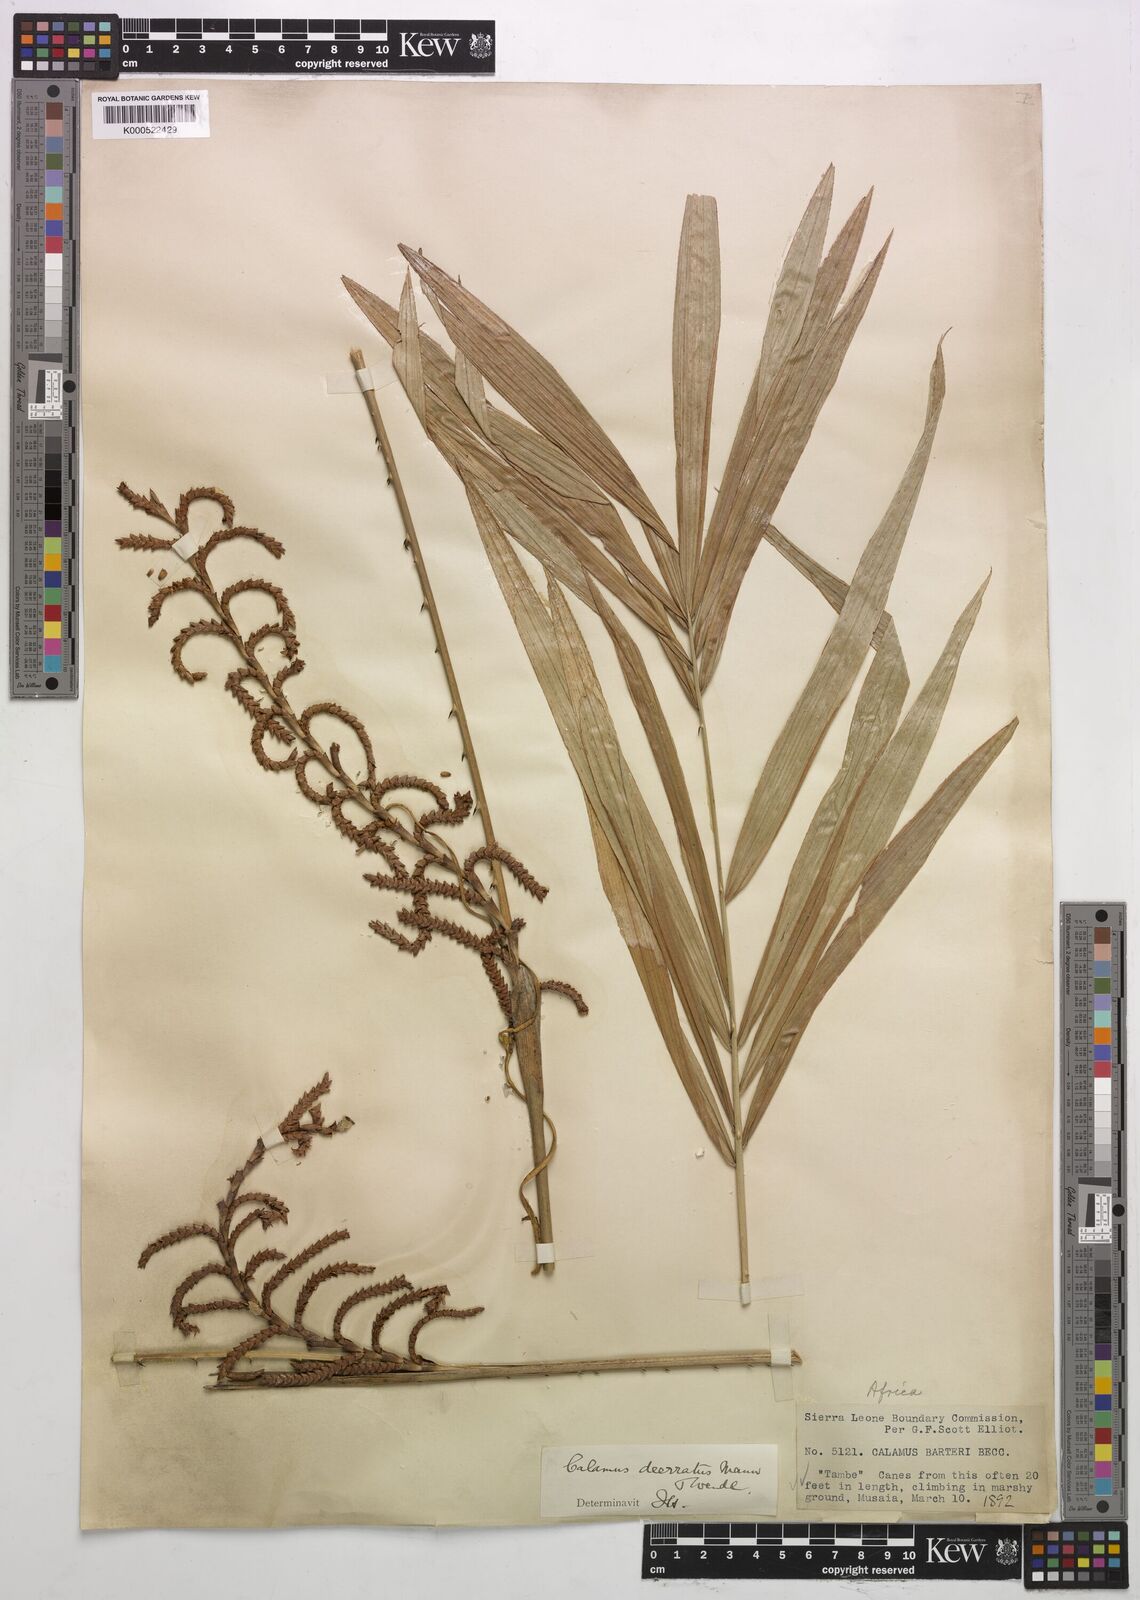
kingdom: Plantae
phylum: Tracheophyta
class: Liliopsida
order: Arecales
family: Arecaceae
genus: Calamus
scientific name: Calamus deerratus
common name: Rattan
